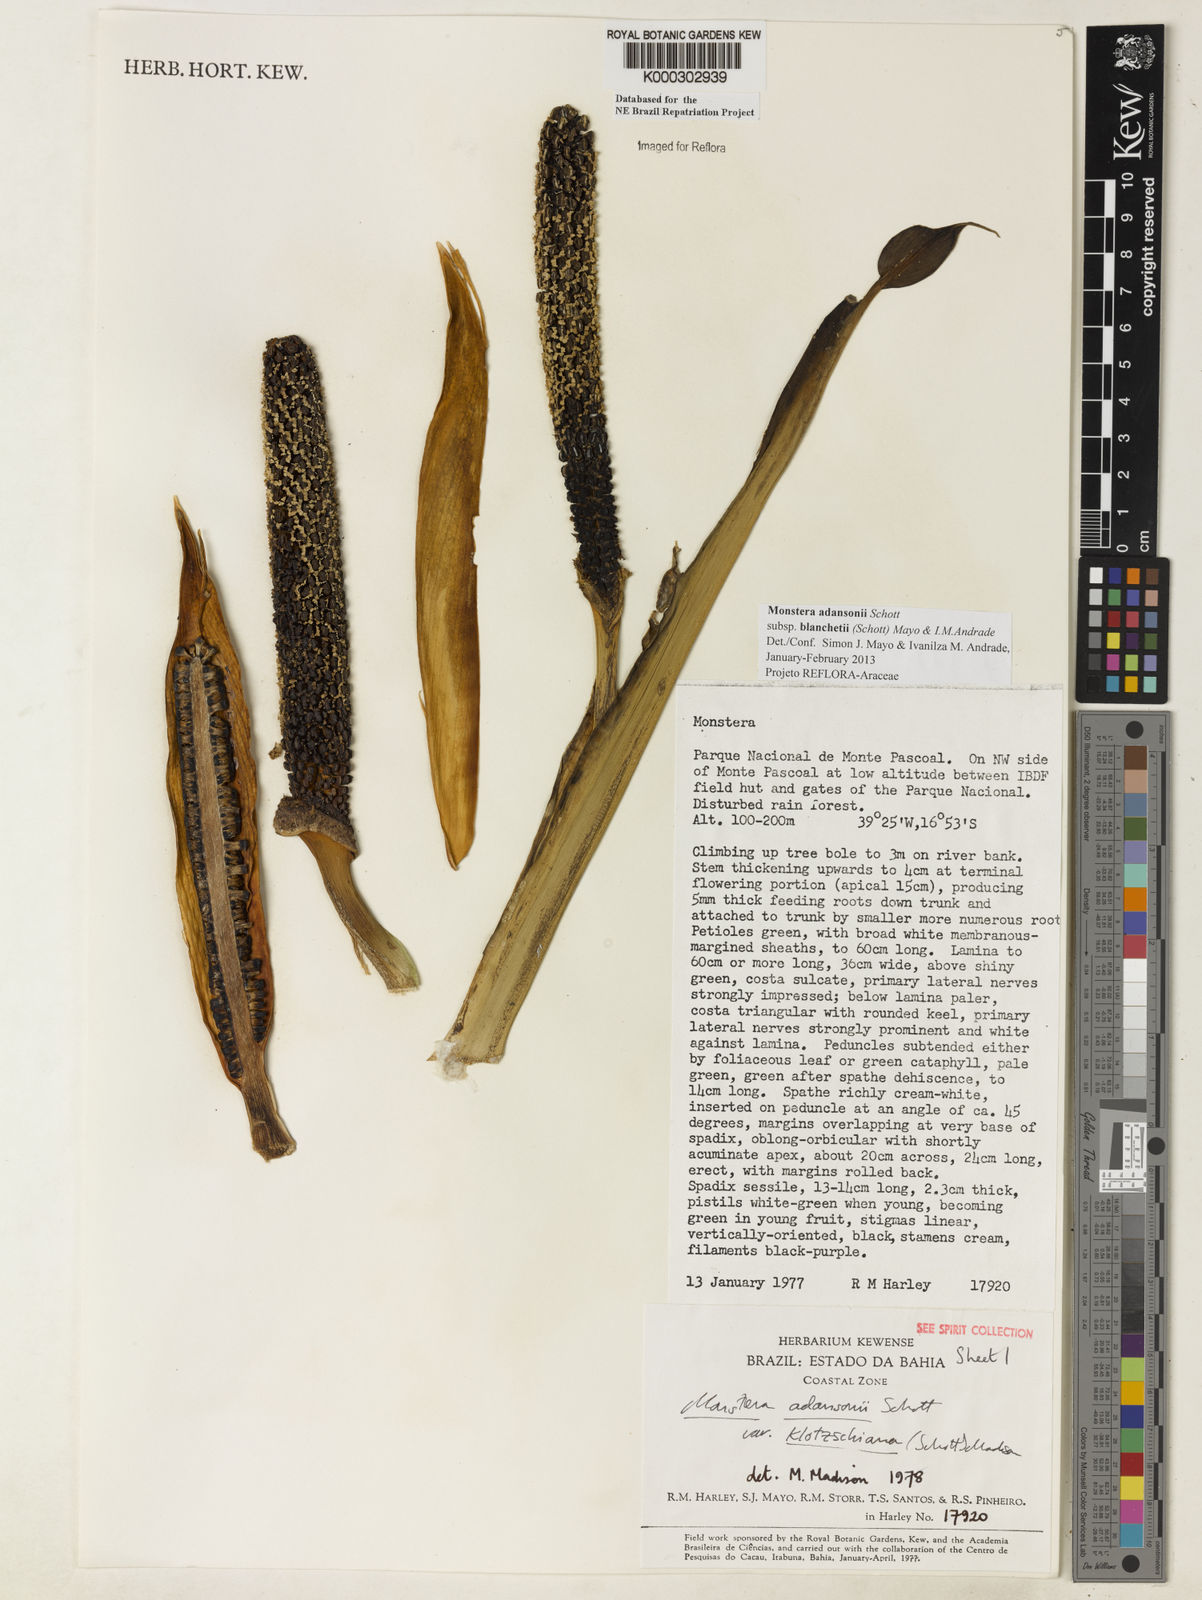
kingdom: Plantae
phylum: Tracheophyta
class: Liliopsida
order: Alismatales
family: Araceae
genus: Monstera
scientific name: Monstera adansonii
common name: Tarovine
